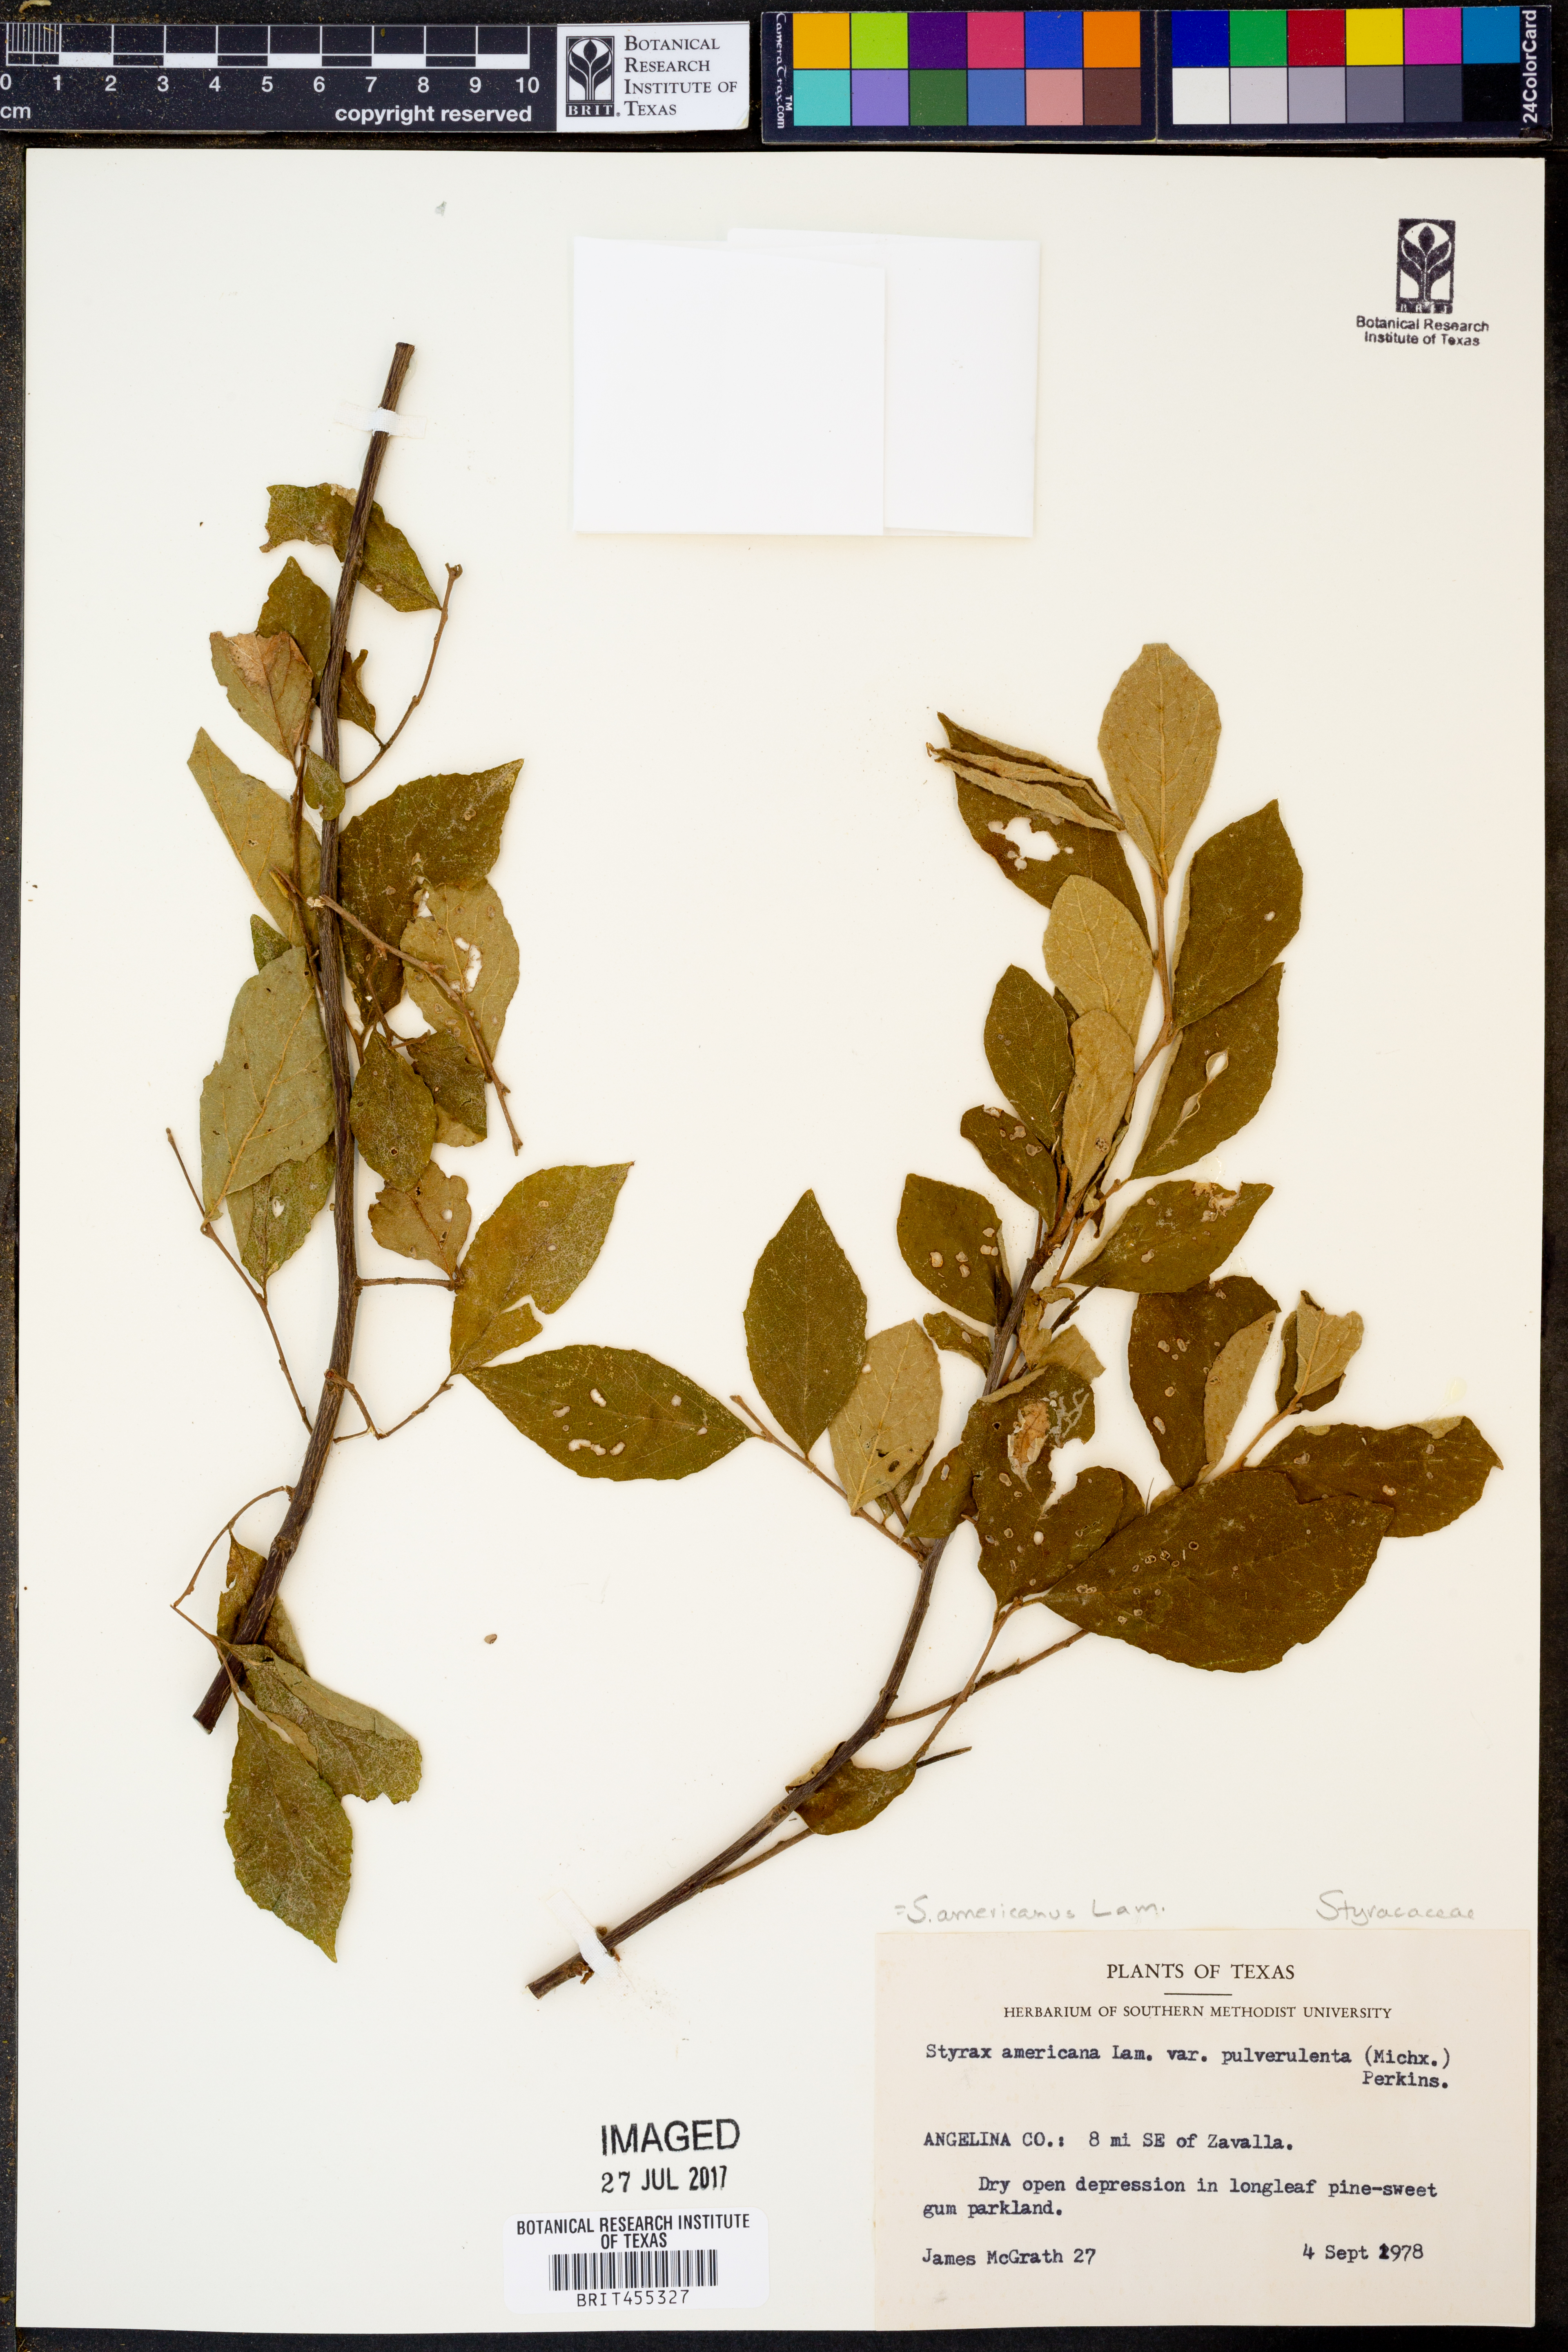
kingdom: Plantae
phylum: Tracheophyta
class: Magnoliopsida
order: Ericales
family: Styracaceae
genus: Styrax
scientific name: Styrax americanus
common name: American snowbell
